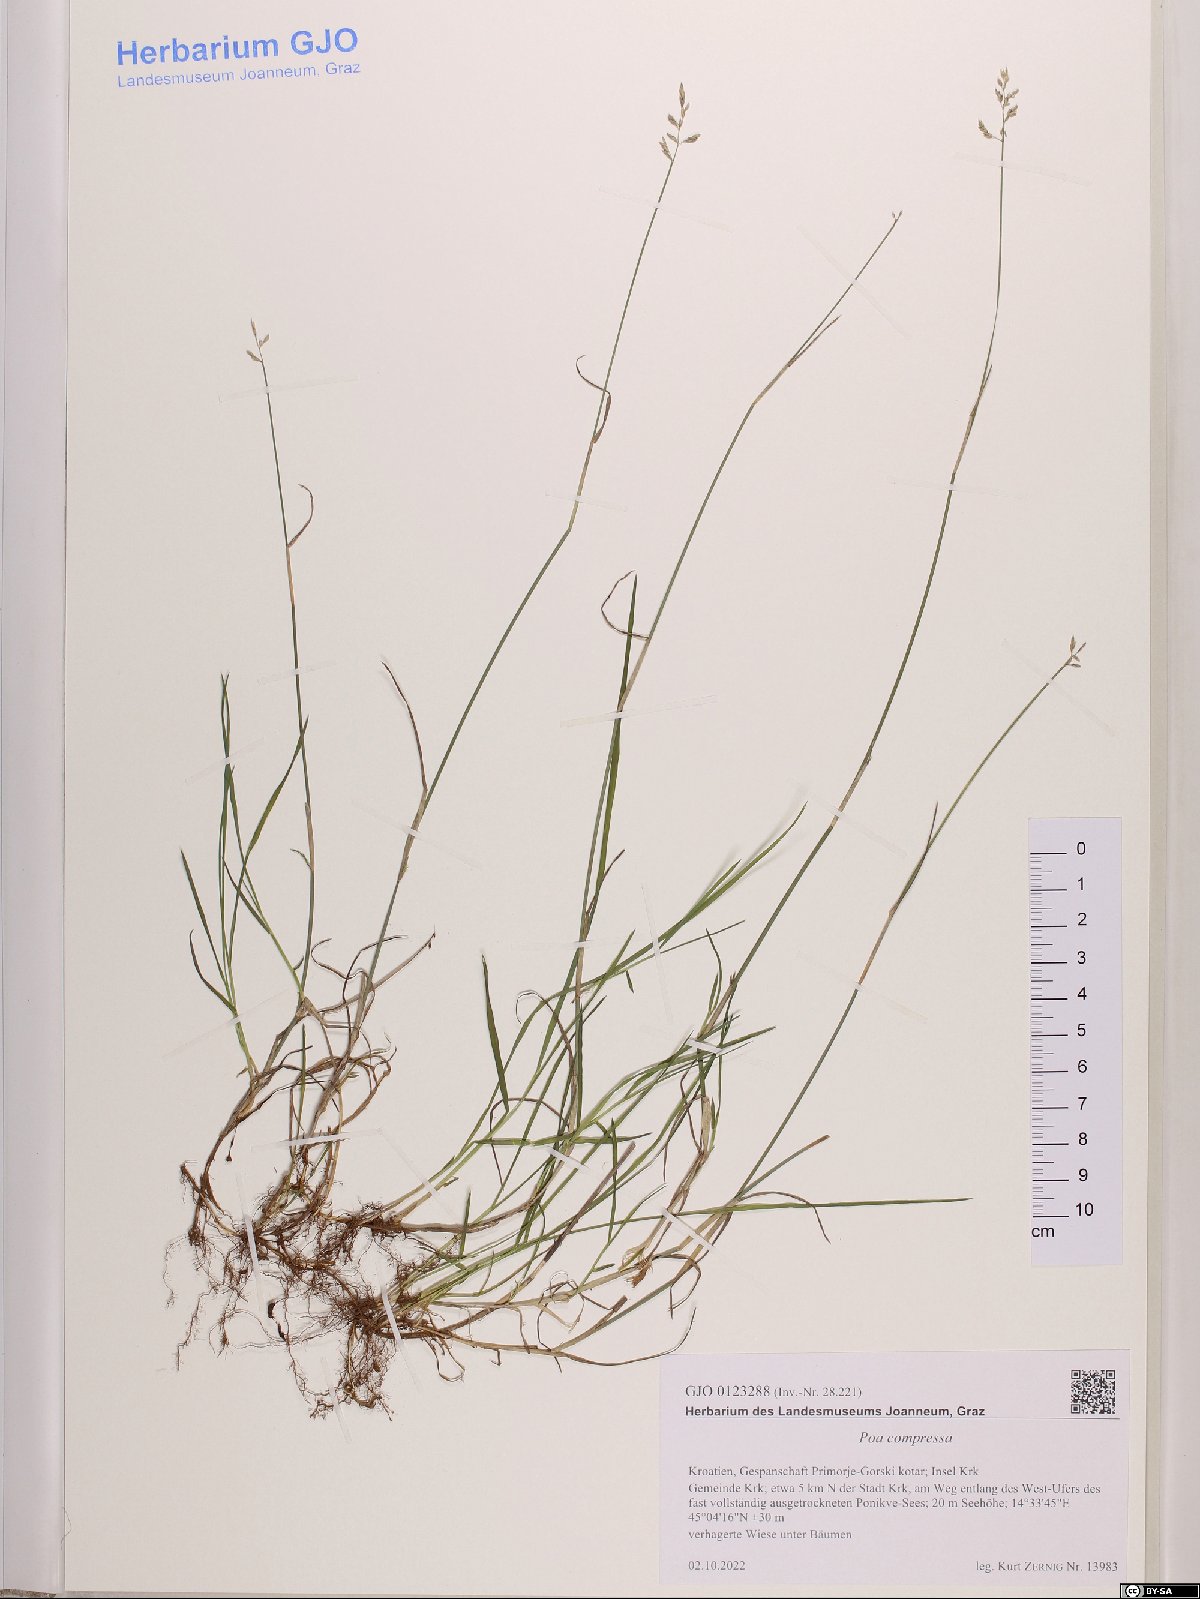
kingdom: Plantae
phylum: Tracheophyta
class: Liliopsida
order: Poales
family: Poaceae
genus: Poa
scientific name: Poa compressa
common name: Canada bluegrass
